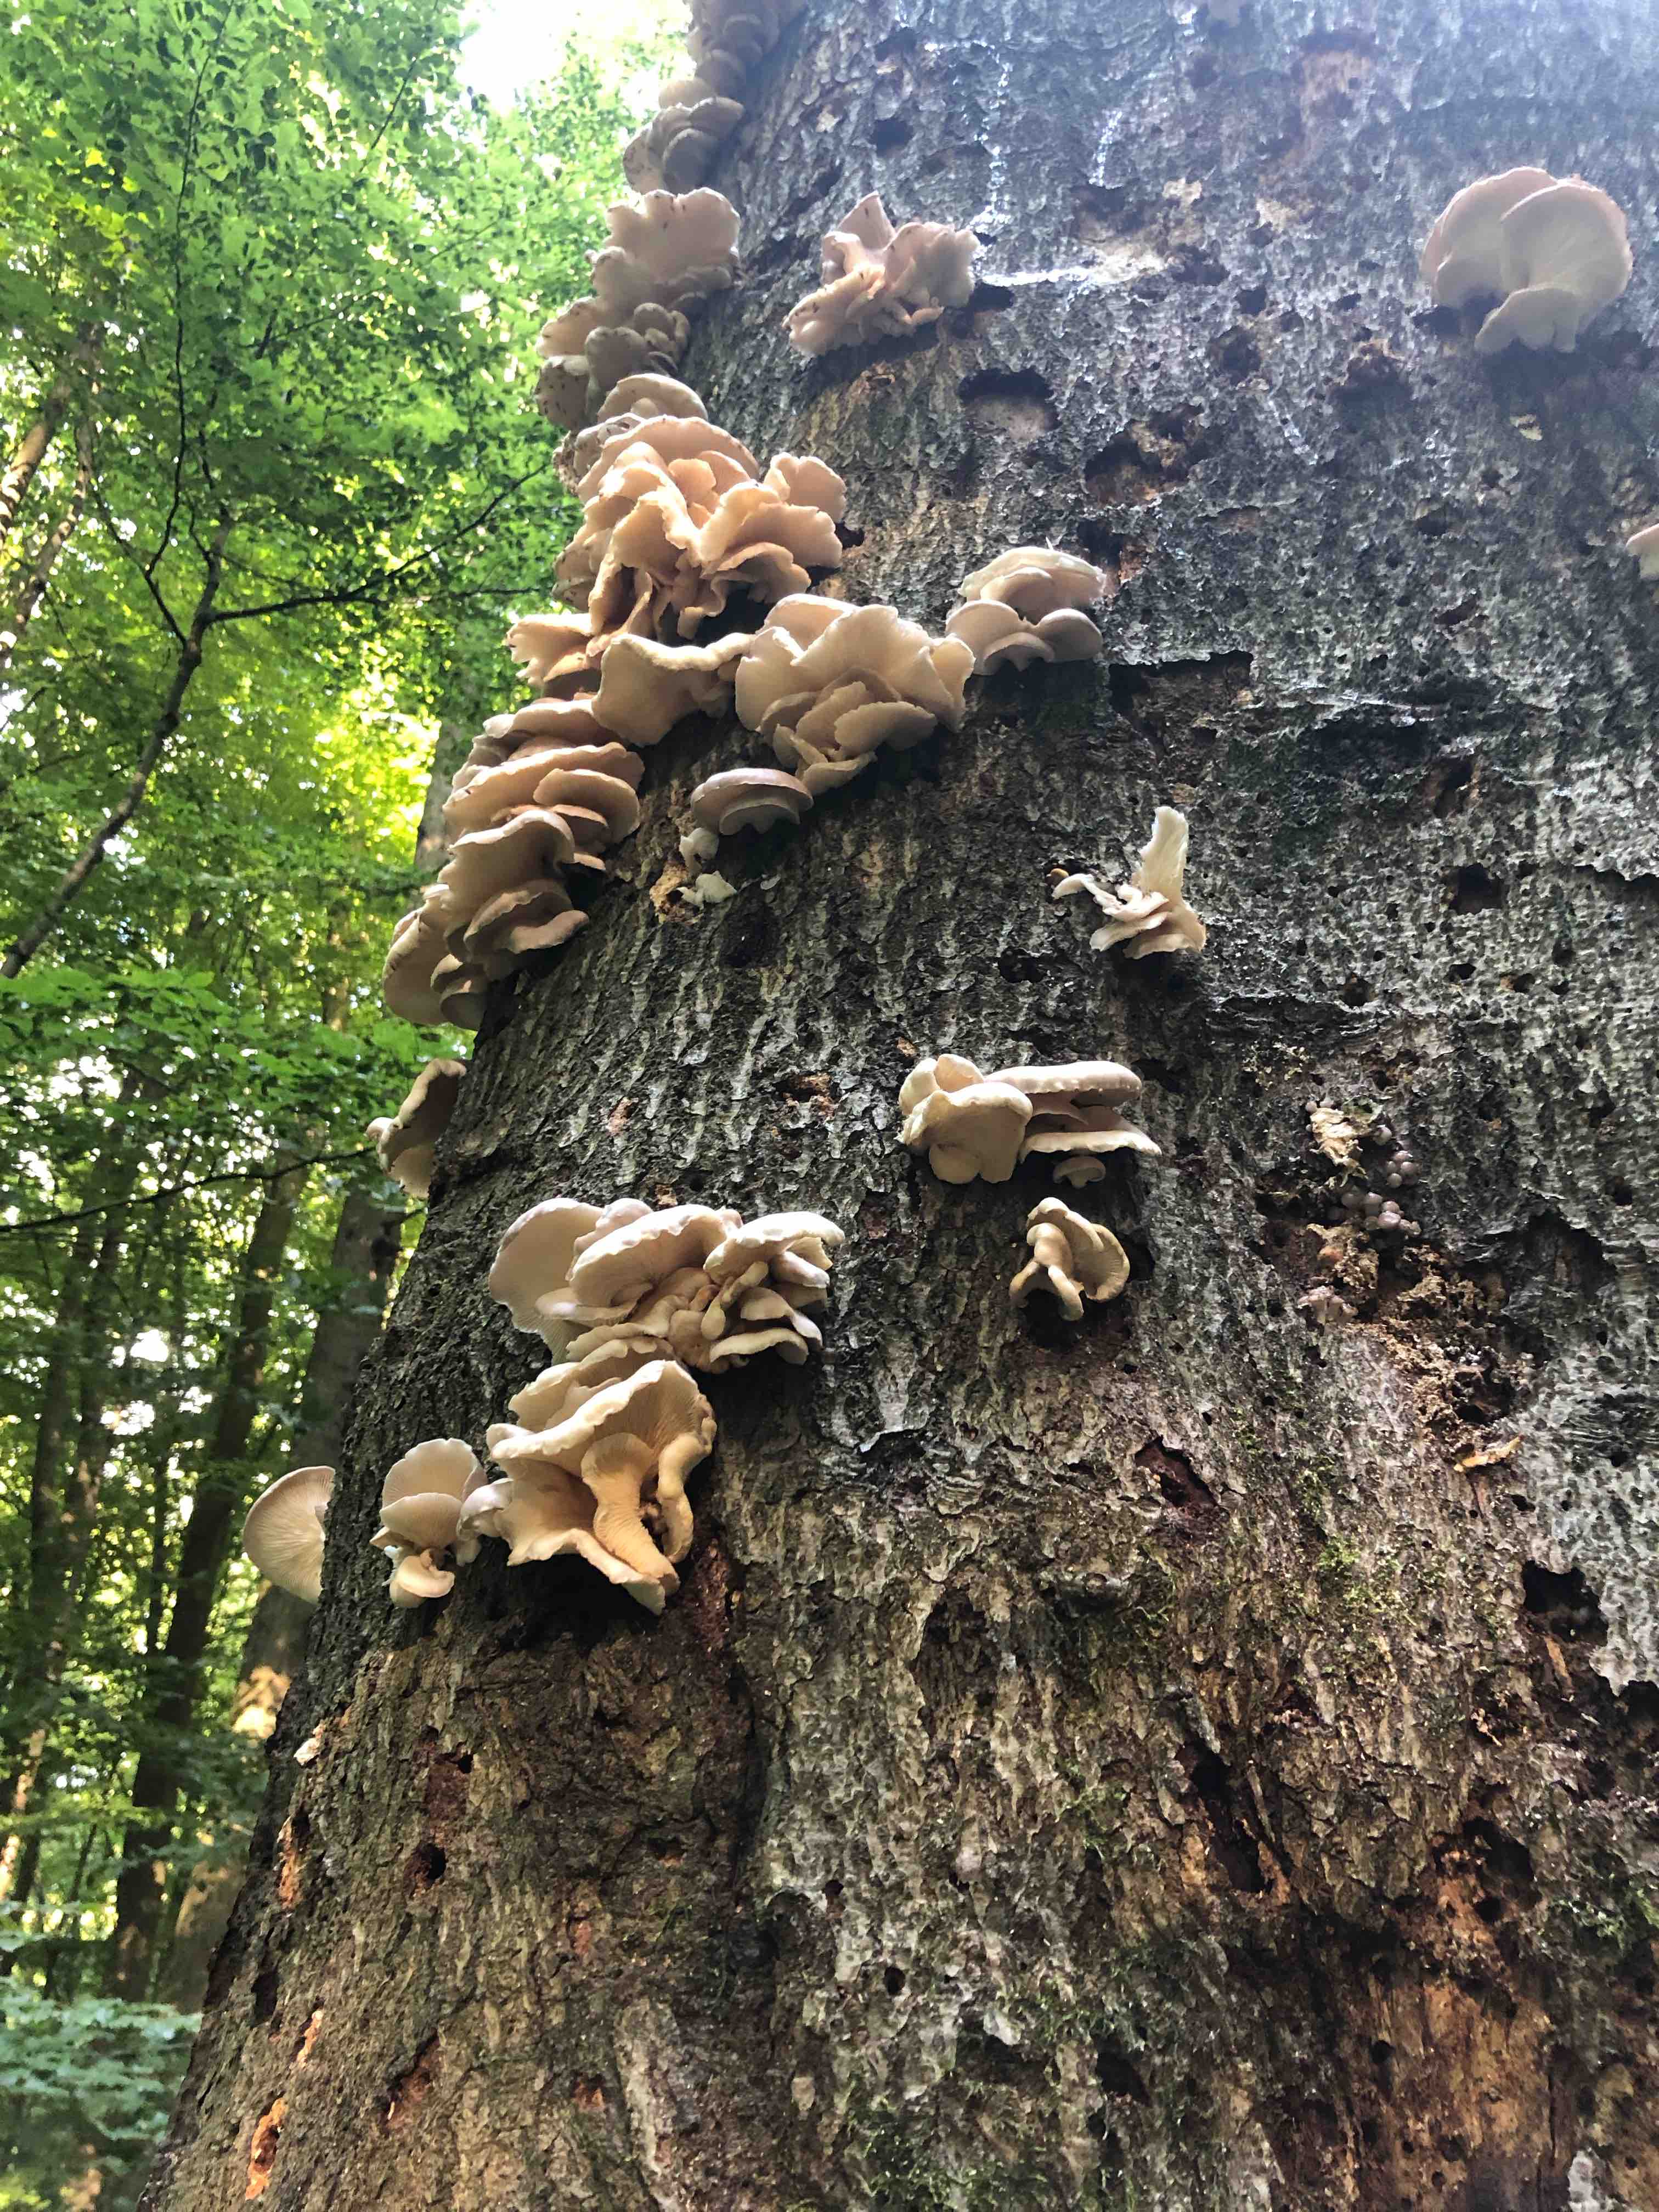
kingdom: Fungi
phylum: Basidiomycota
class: Agaricomycetes
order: Agaricales
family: Pleurotaceae
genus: Pleurotus
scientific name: Pleurotus pulmonarius
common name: sommer-østershat
